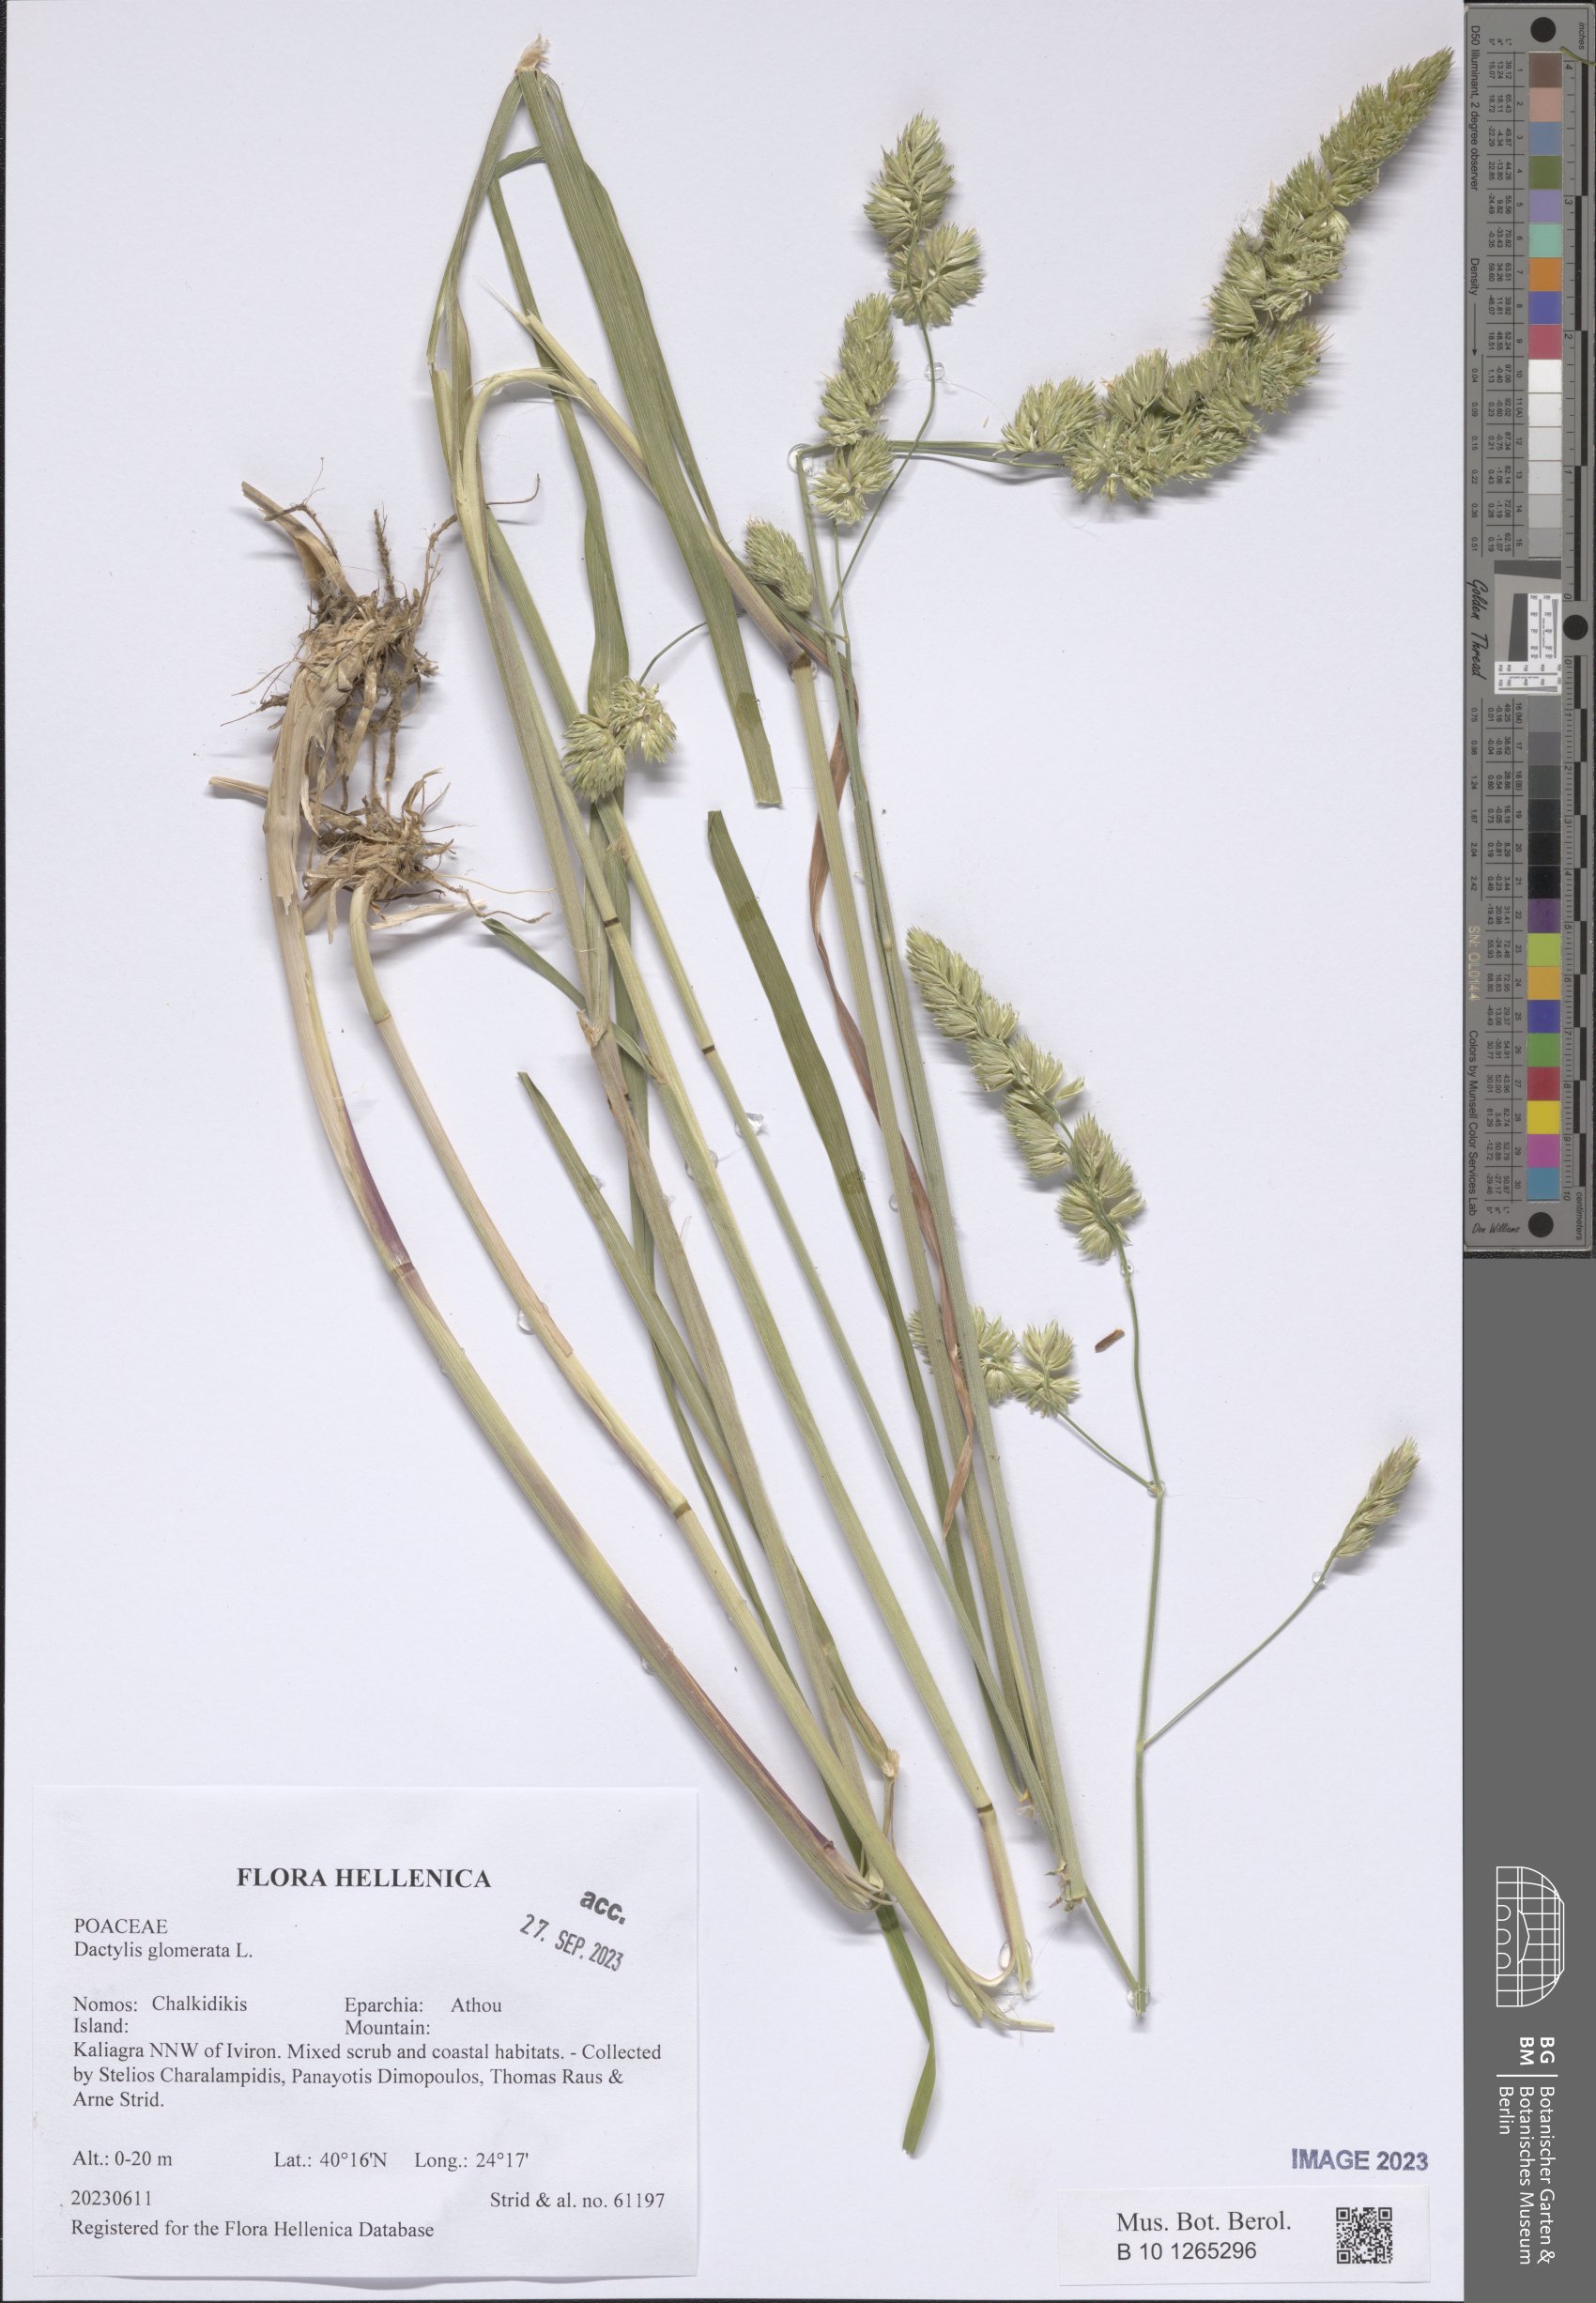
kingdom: Plantae
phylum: Tracheophyta
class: Liliopsida
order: Poales
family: Poaceae
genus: Dactylis
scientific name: Dactylis glomerata
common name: Orchardgrass
